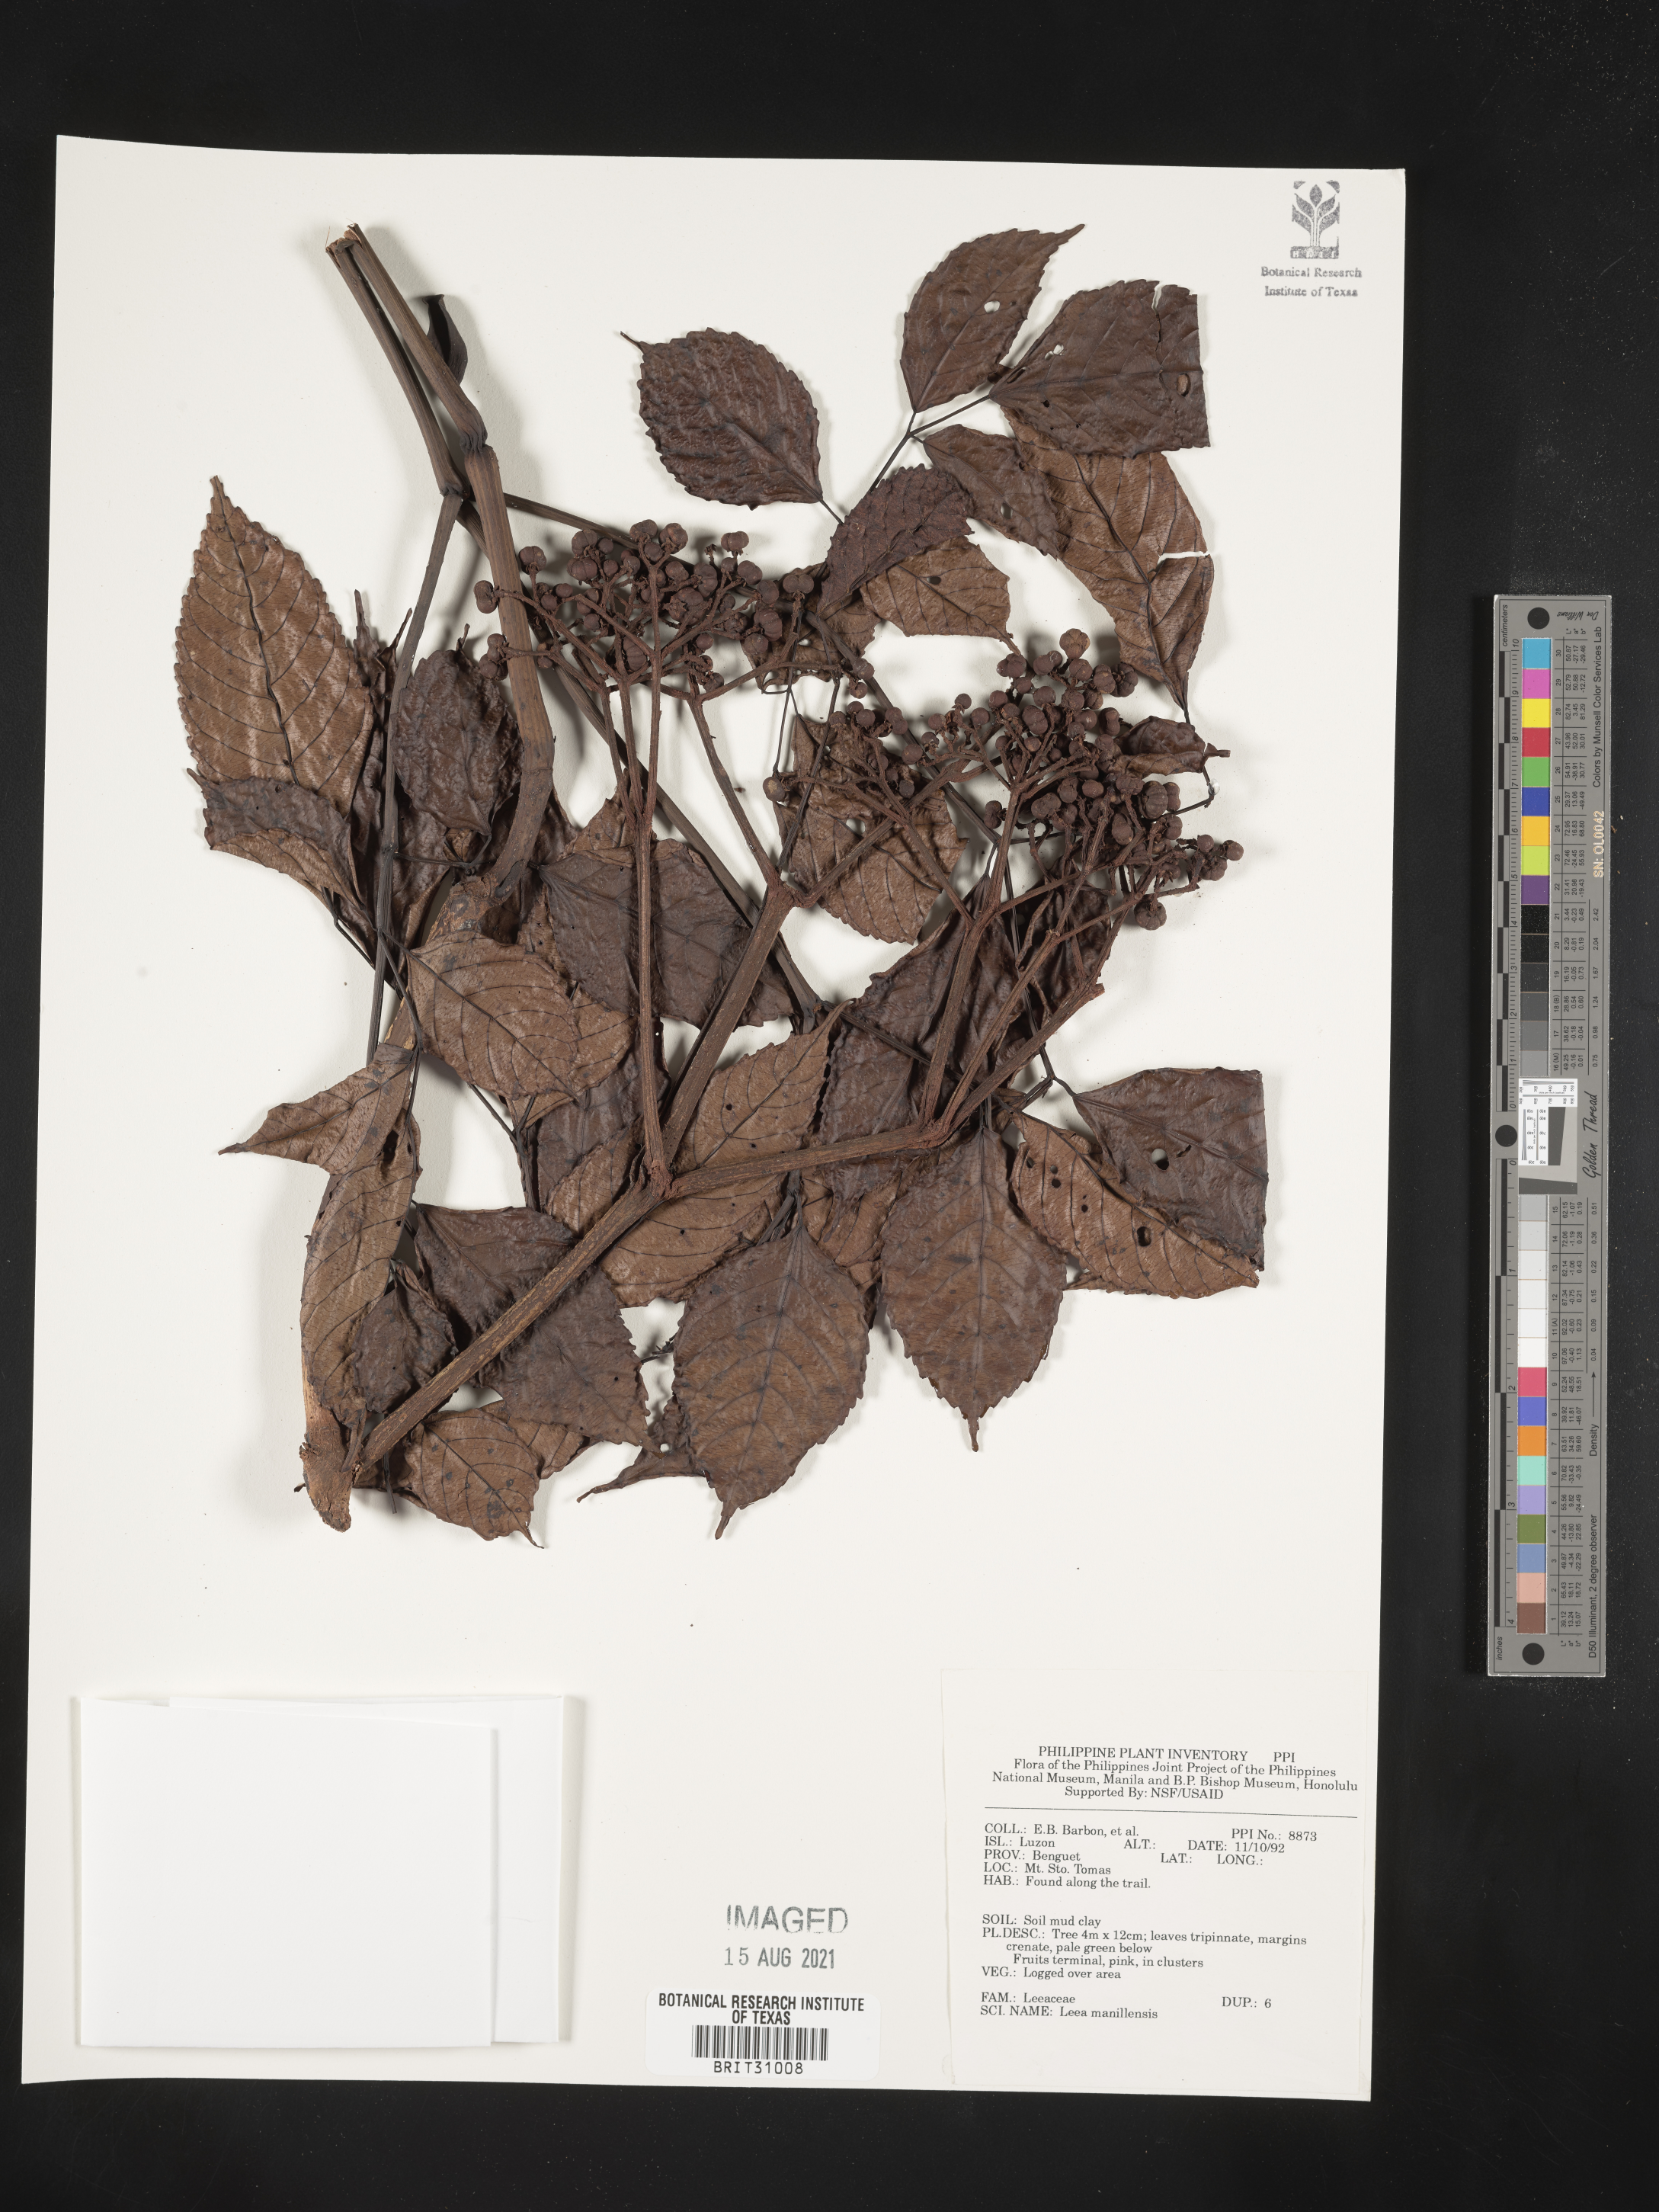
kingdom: Plantae
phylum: Tracheophyta
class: Magnoliopsida
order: Vitales
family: Vitaceae
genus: Leea
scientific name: Leea guineensis
